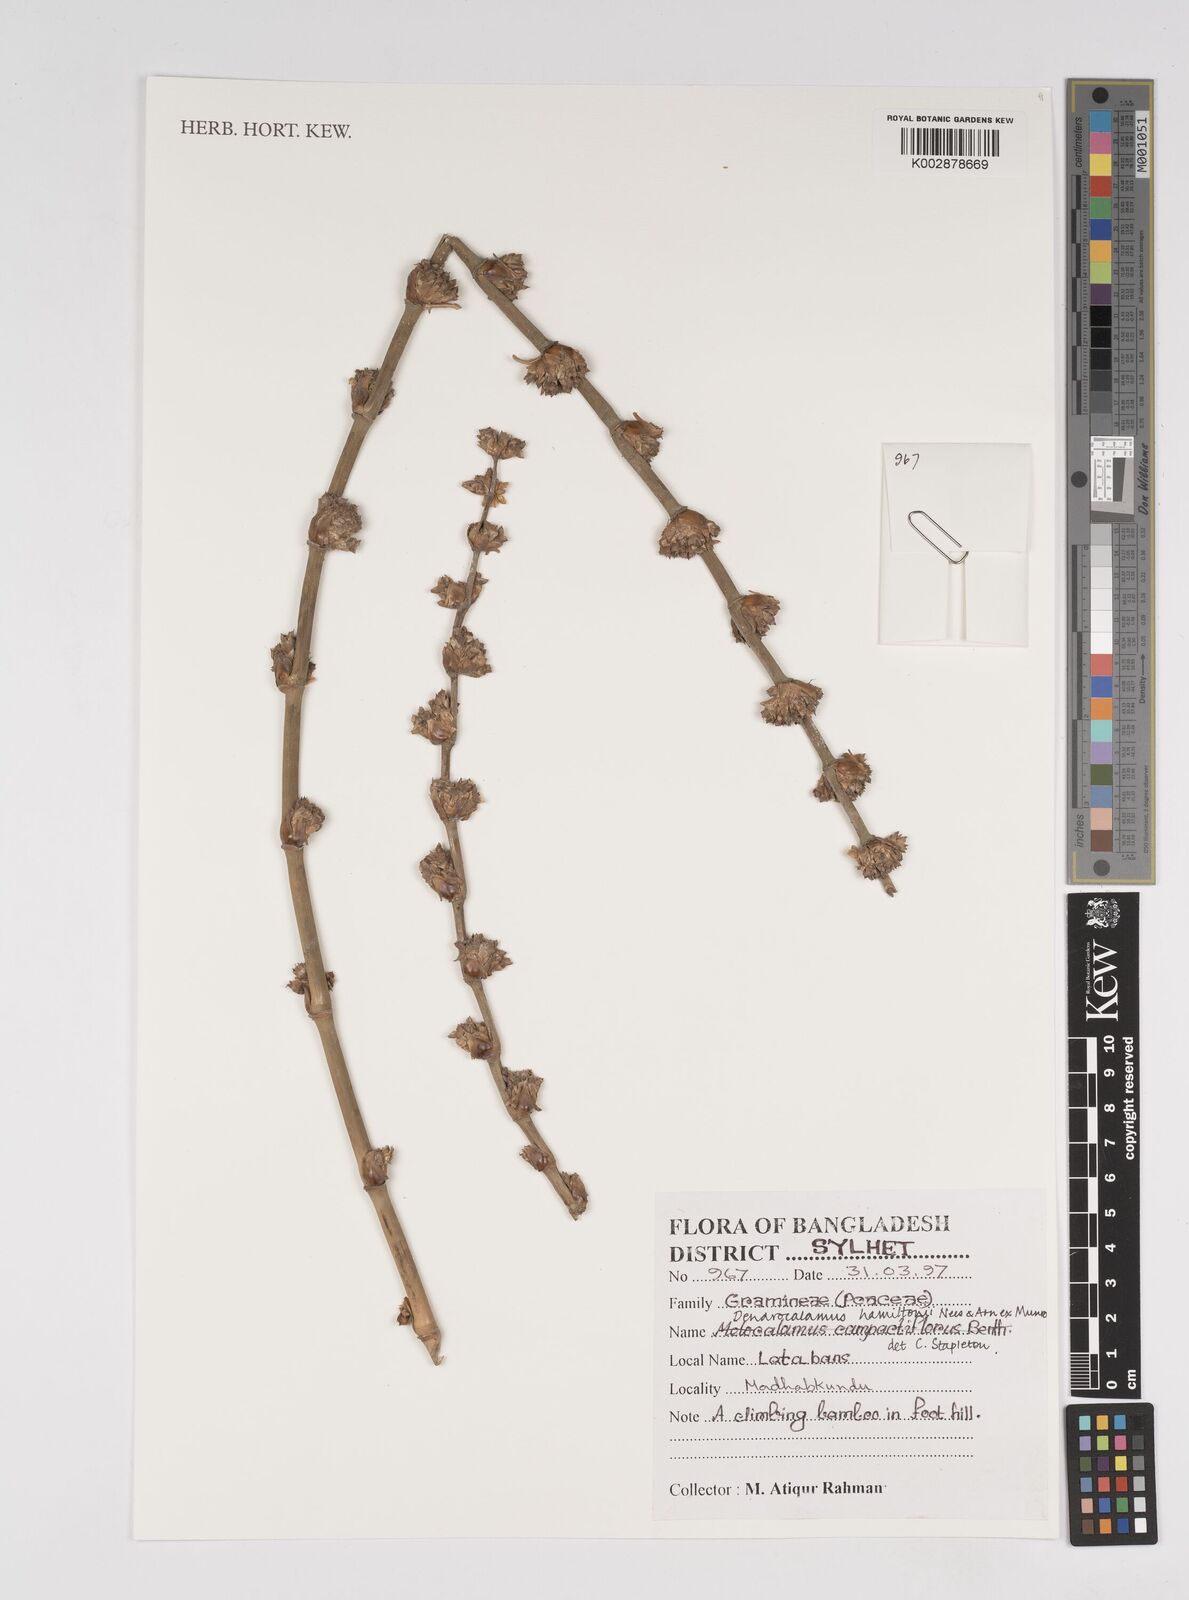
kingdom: Plantae
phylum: Tracheophyta
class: Liliopsida
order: Poales
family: Poaceae
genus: Dendrocalamus
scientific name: Dendrocalamus hamiltonii
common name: Tama bamboo
